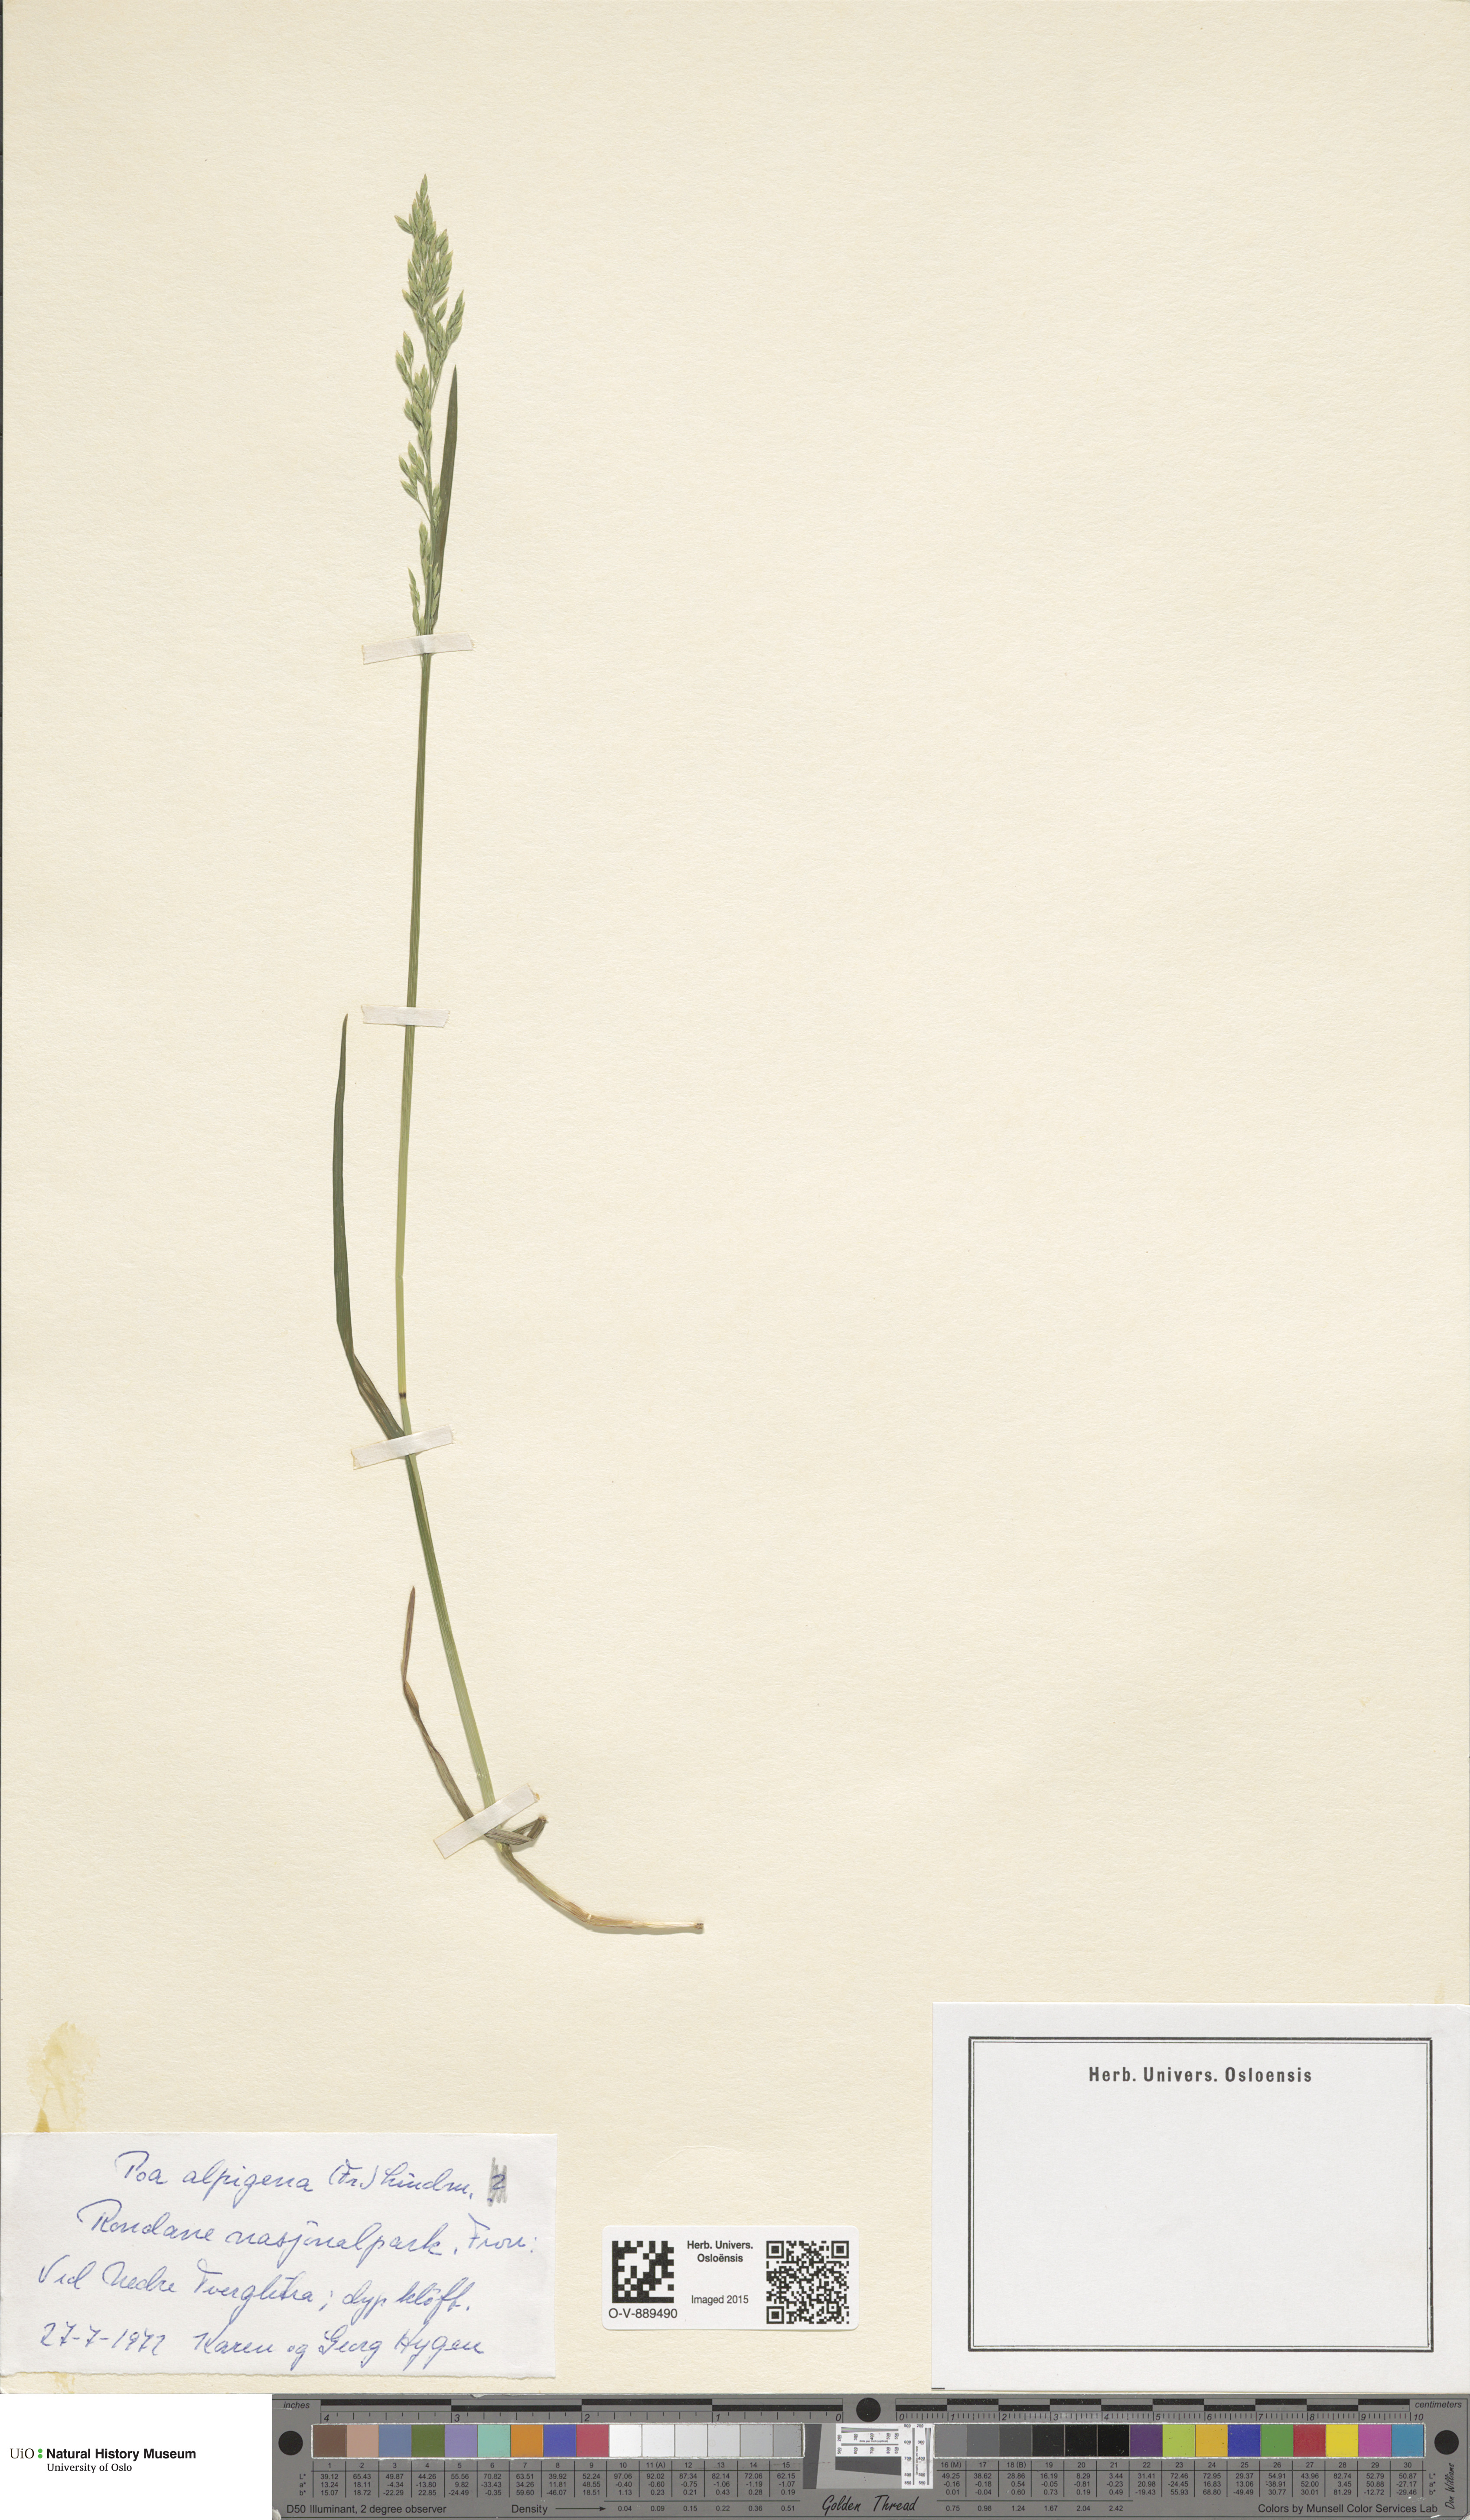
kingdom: Plantae
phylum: Tracheophyta
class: Liliopsida
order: Poales
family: Poaceae
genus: Poa
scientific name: Poa alpigena
